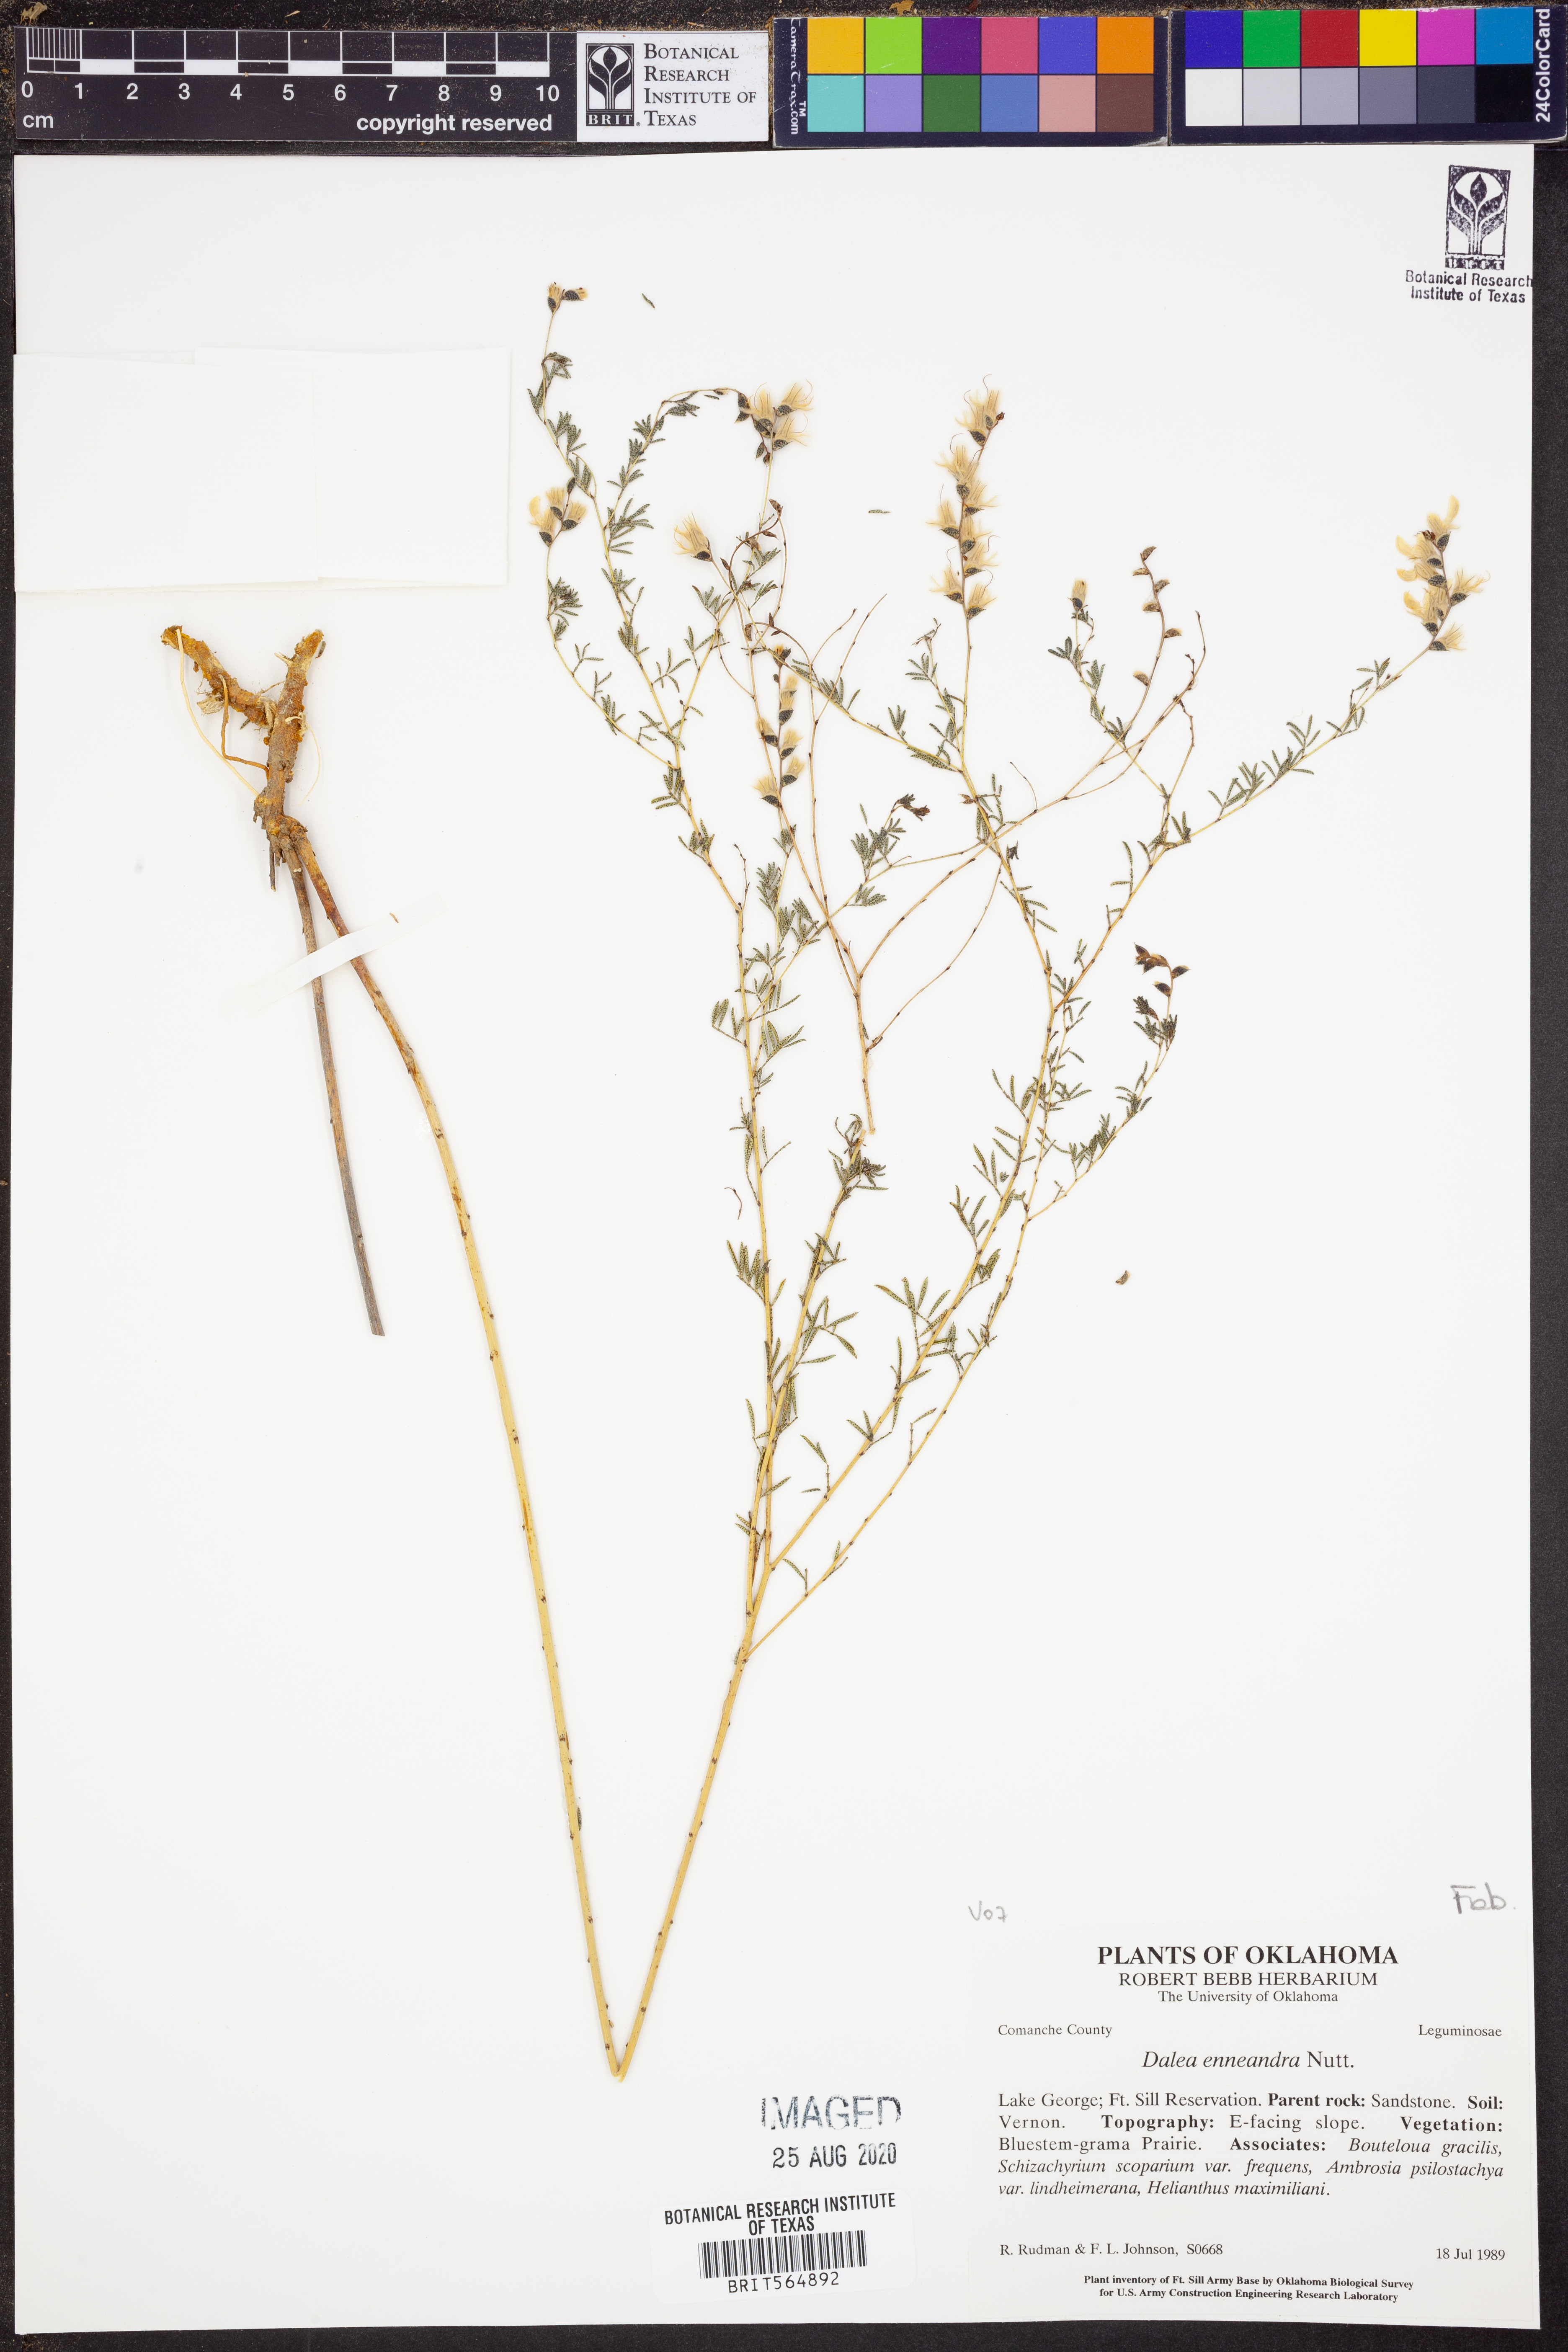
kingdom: Plantae
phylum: Tracheophyta
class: Magnoliopsida
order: Fabales
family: Fabaceae
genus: Dalea
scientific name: Dalea enneandra
